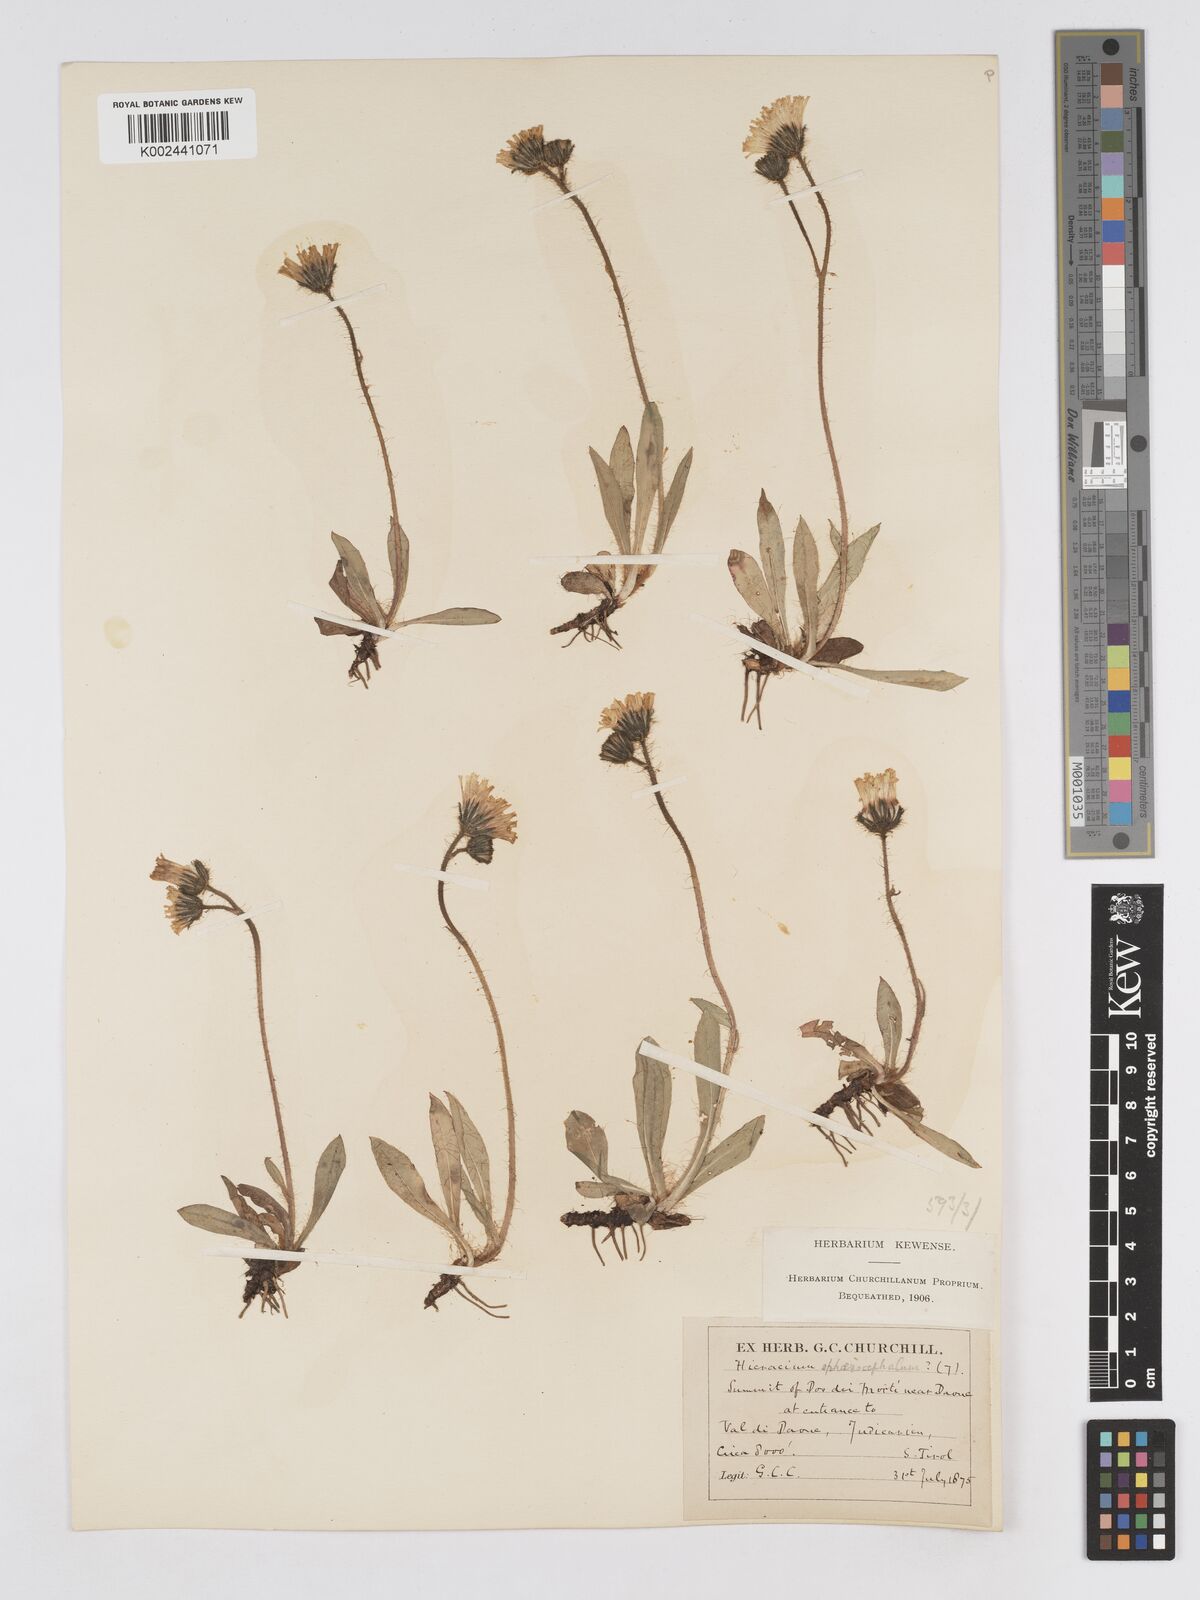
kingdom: Plantae
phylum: Tracheophyta
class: Magnoliopsida
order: Asterales
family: Asteraceae
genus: Pilosella
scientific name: Pilosella sphaerocephala
